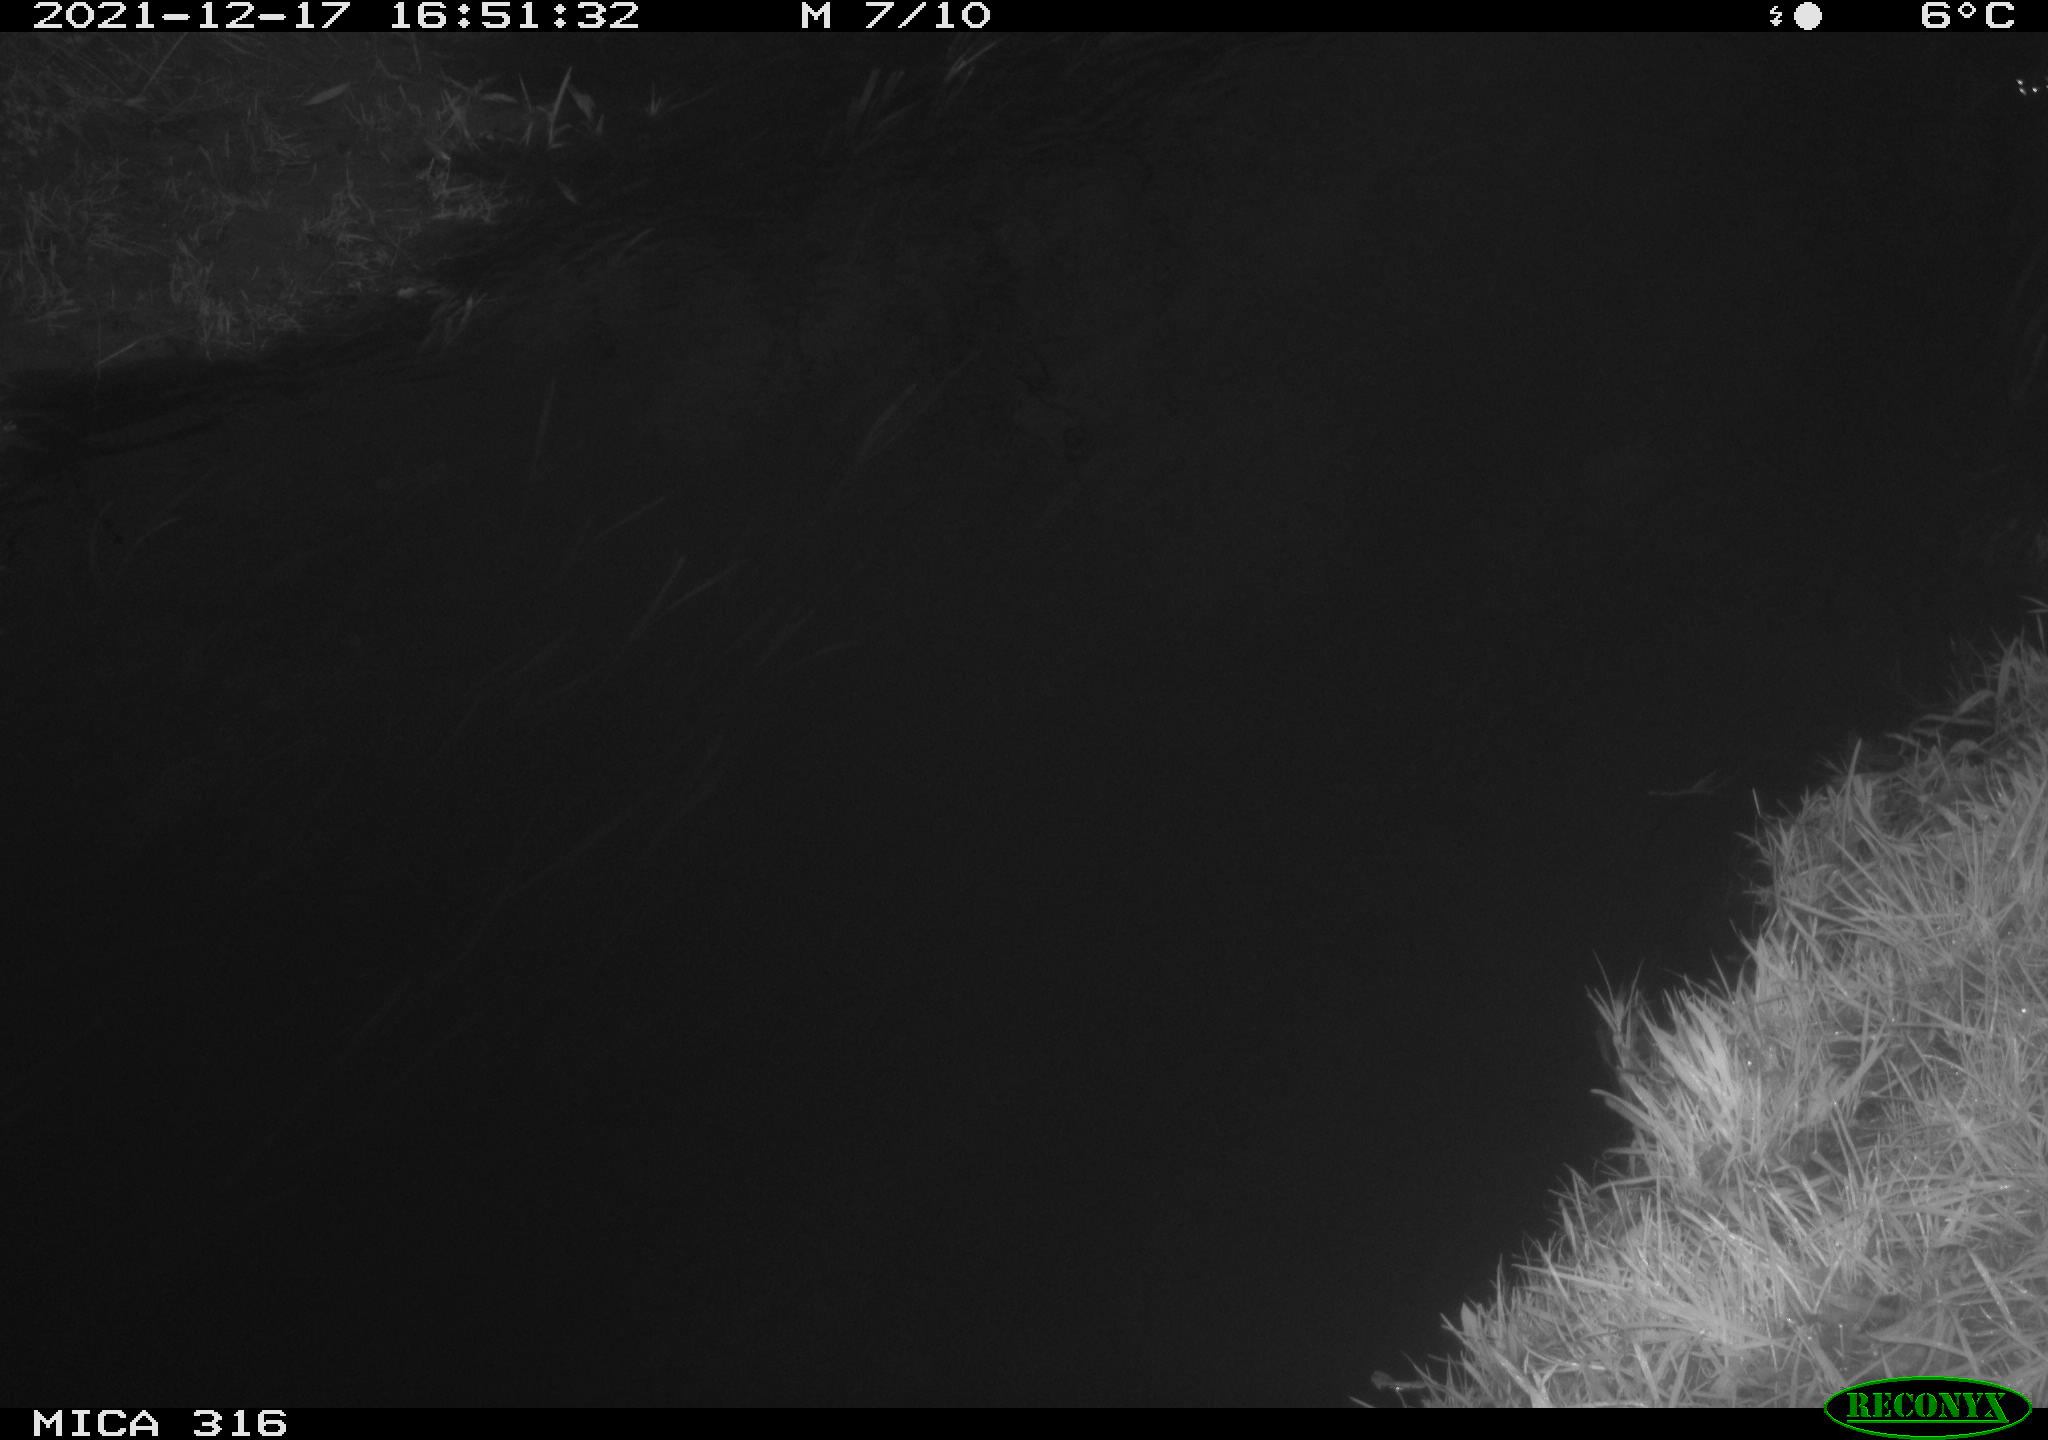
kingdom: Animalia
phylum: Chordata
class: Aves
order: Podicipediformes
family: Podicipedidae
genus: Tachybaptus
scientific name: Tachybaptus ruficollis
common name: Little grebe
